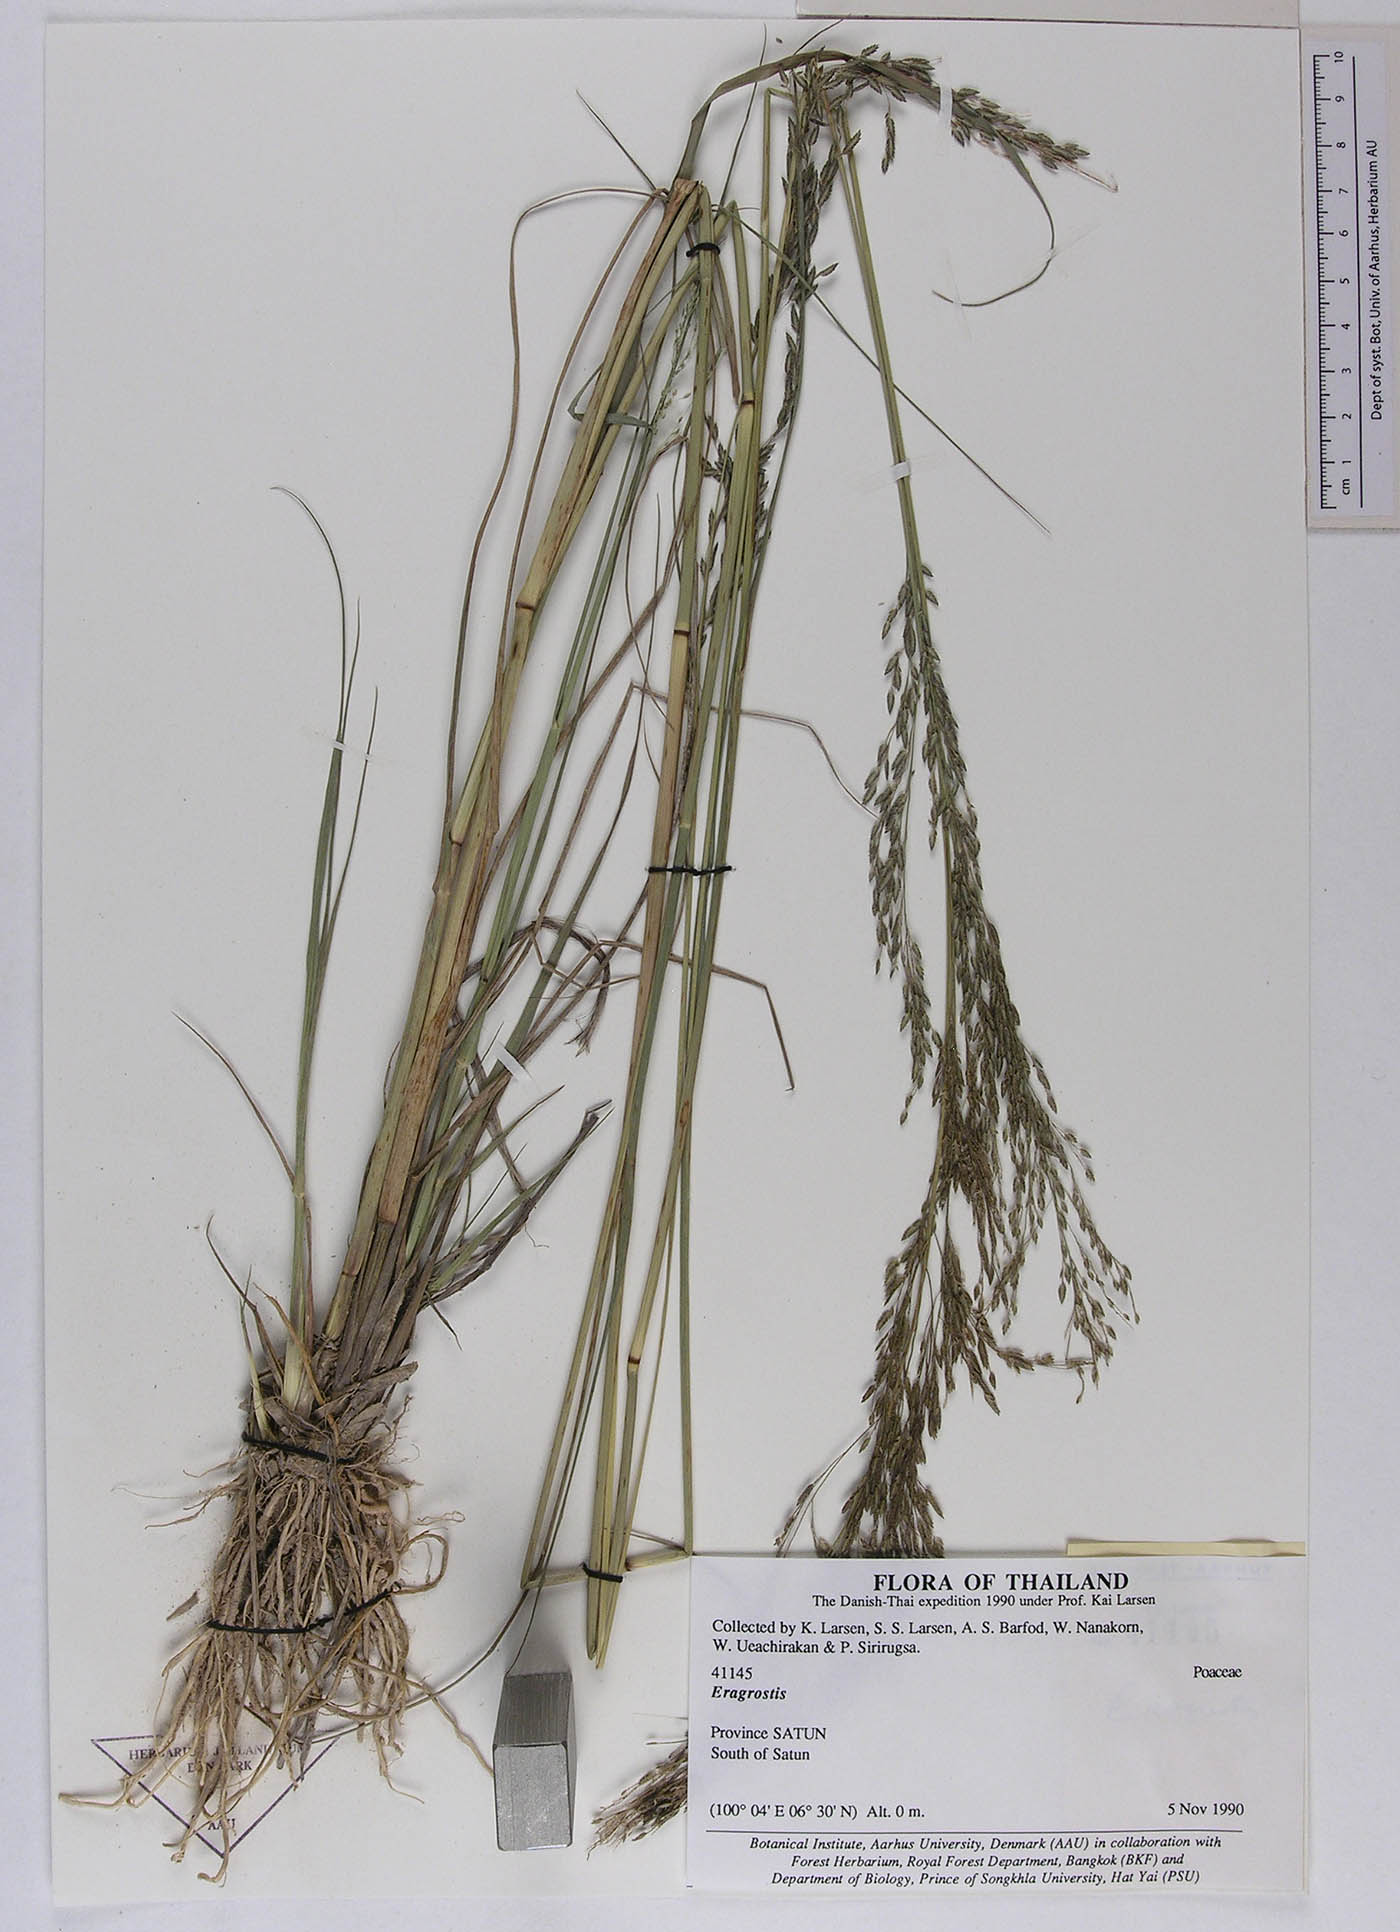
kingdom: Plantae
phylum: Tracheophyta
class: Liliopsida
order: Poales
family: Poaceae
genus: Eragrostis
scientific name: Eragrostis atrovirens
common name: Thalia lovegrass
